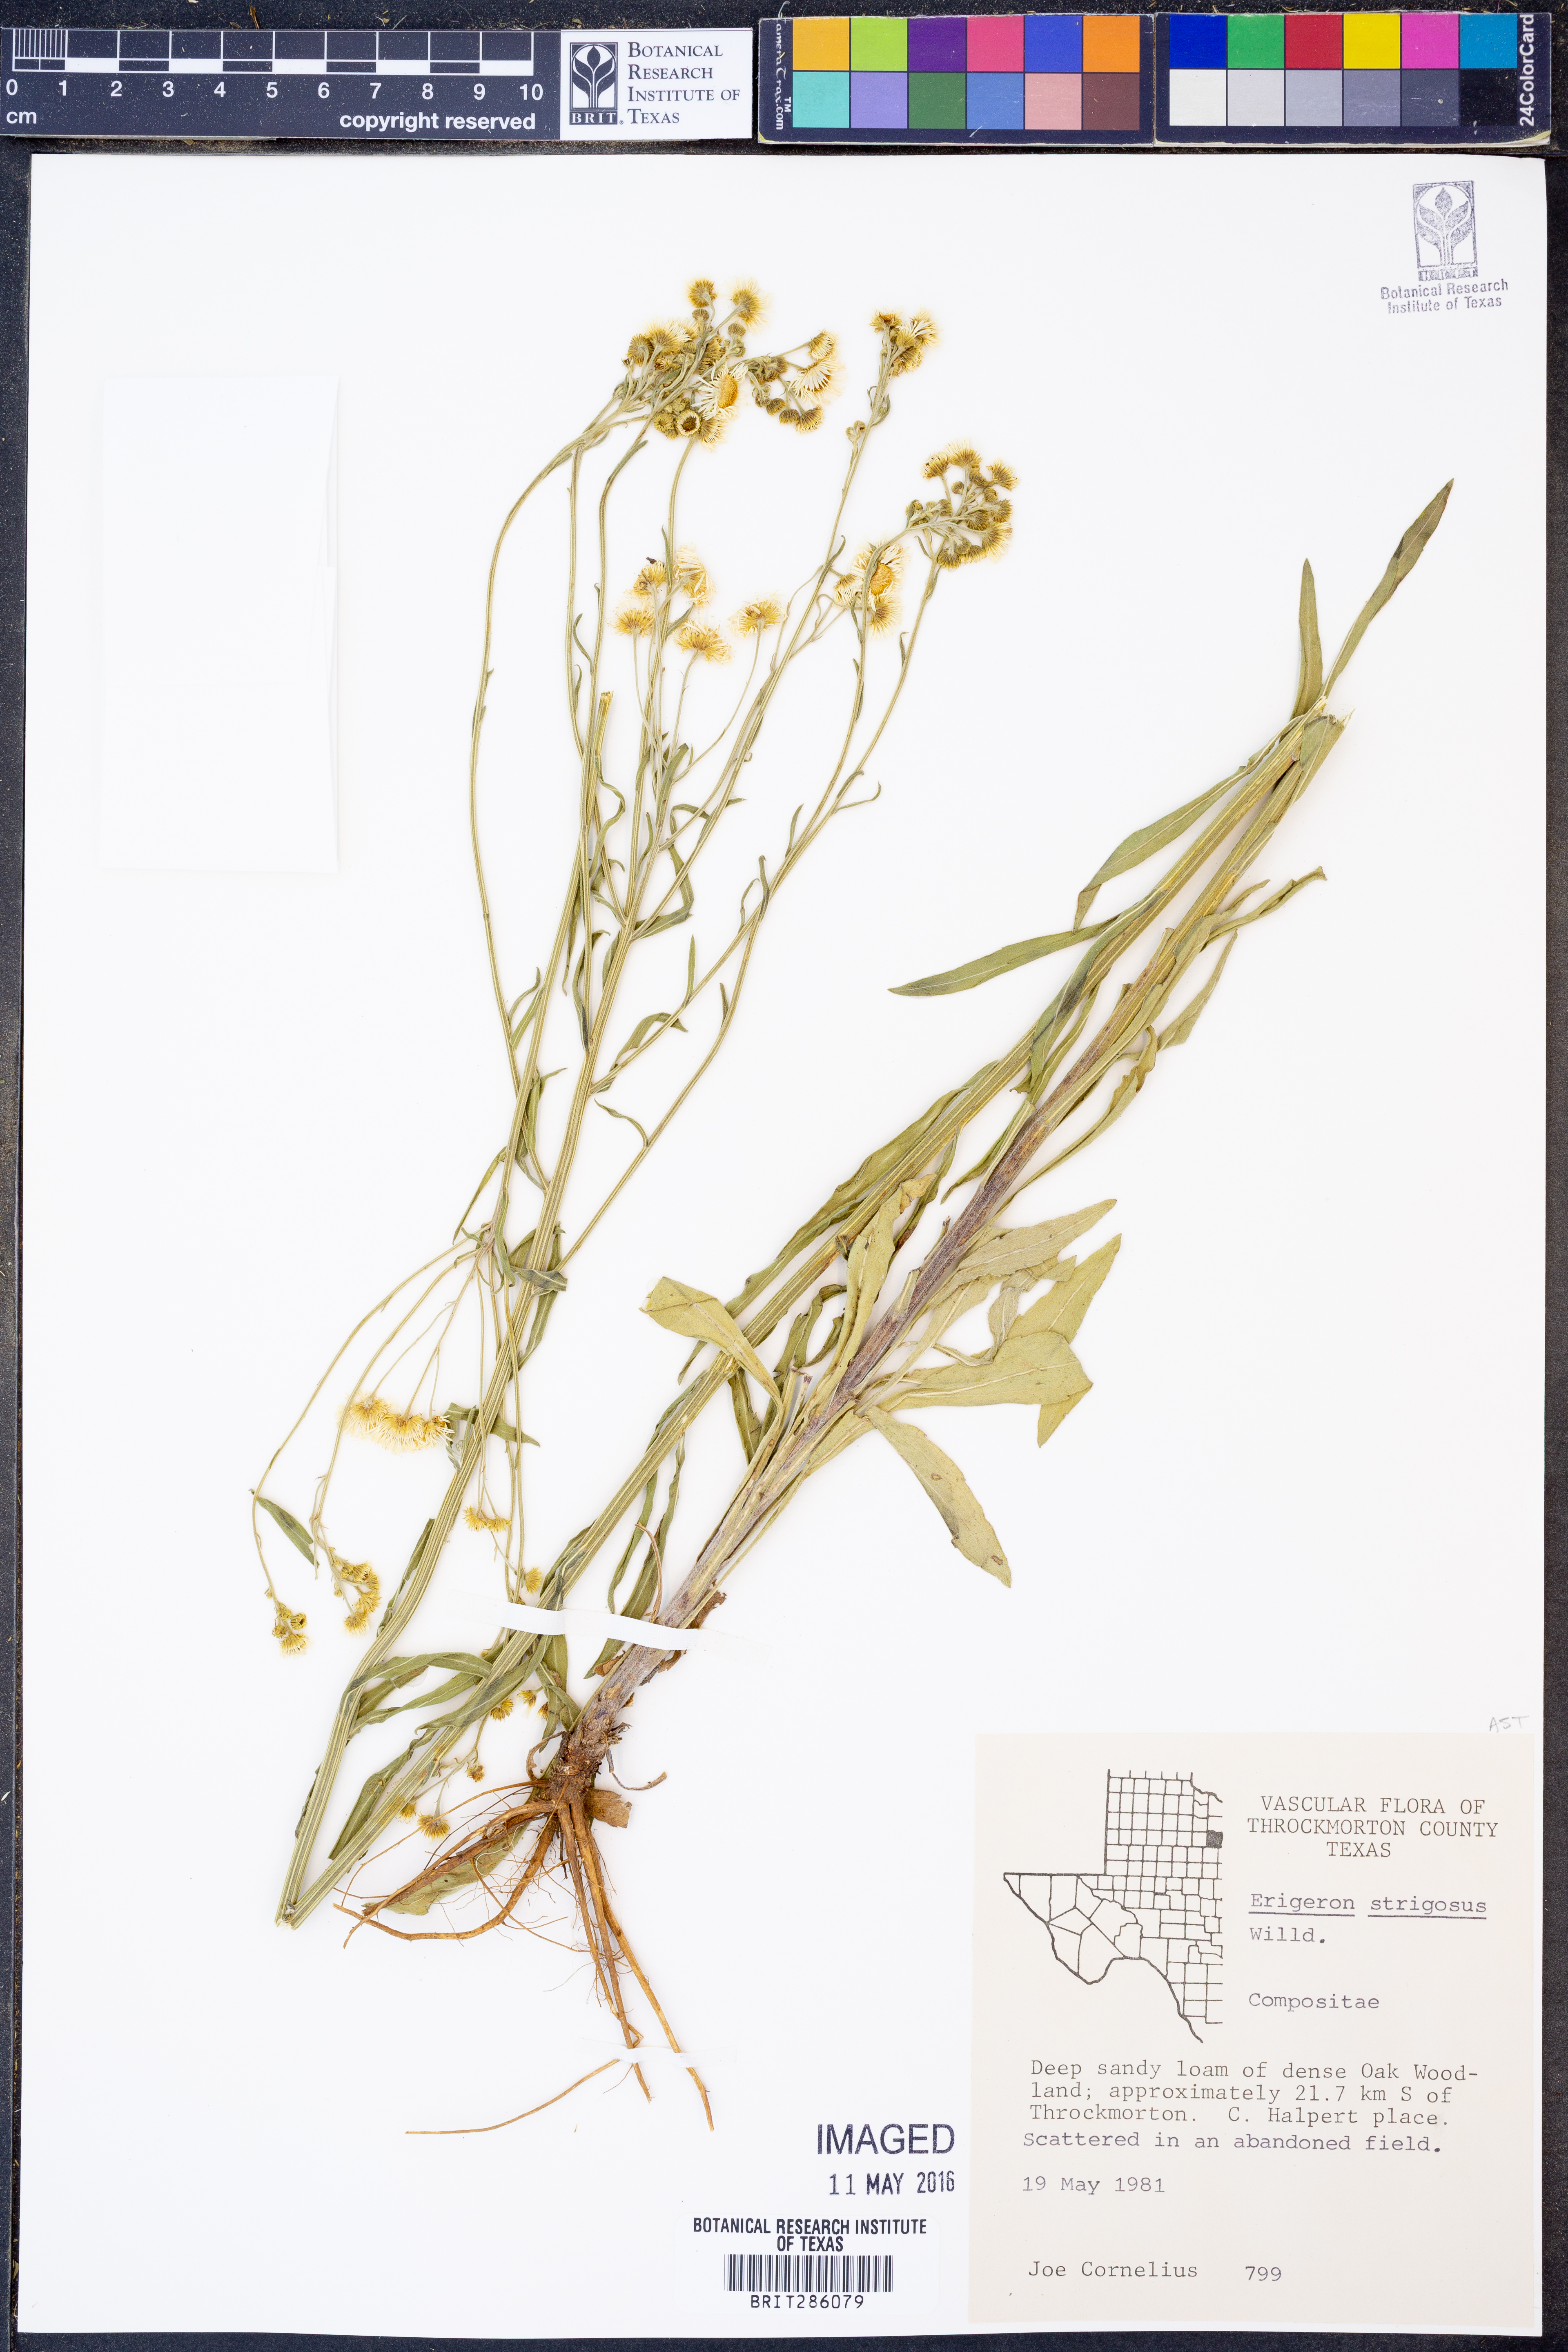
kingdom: Plantae
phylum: Tracheophyta
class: Magnoliopsida
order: Asterales
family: Asteraceae
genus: Erigeron
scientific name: Erigeron strigosus
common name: Common eastern fleabane
